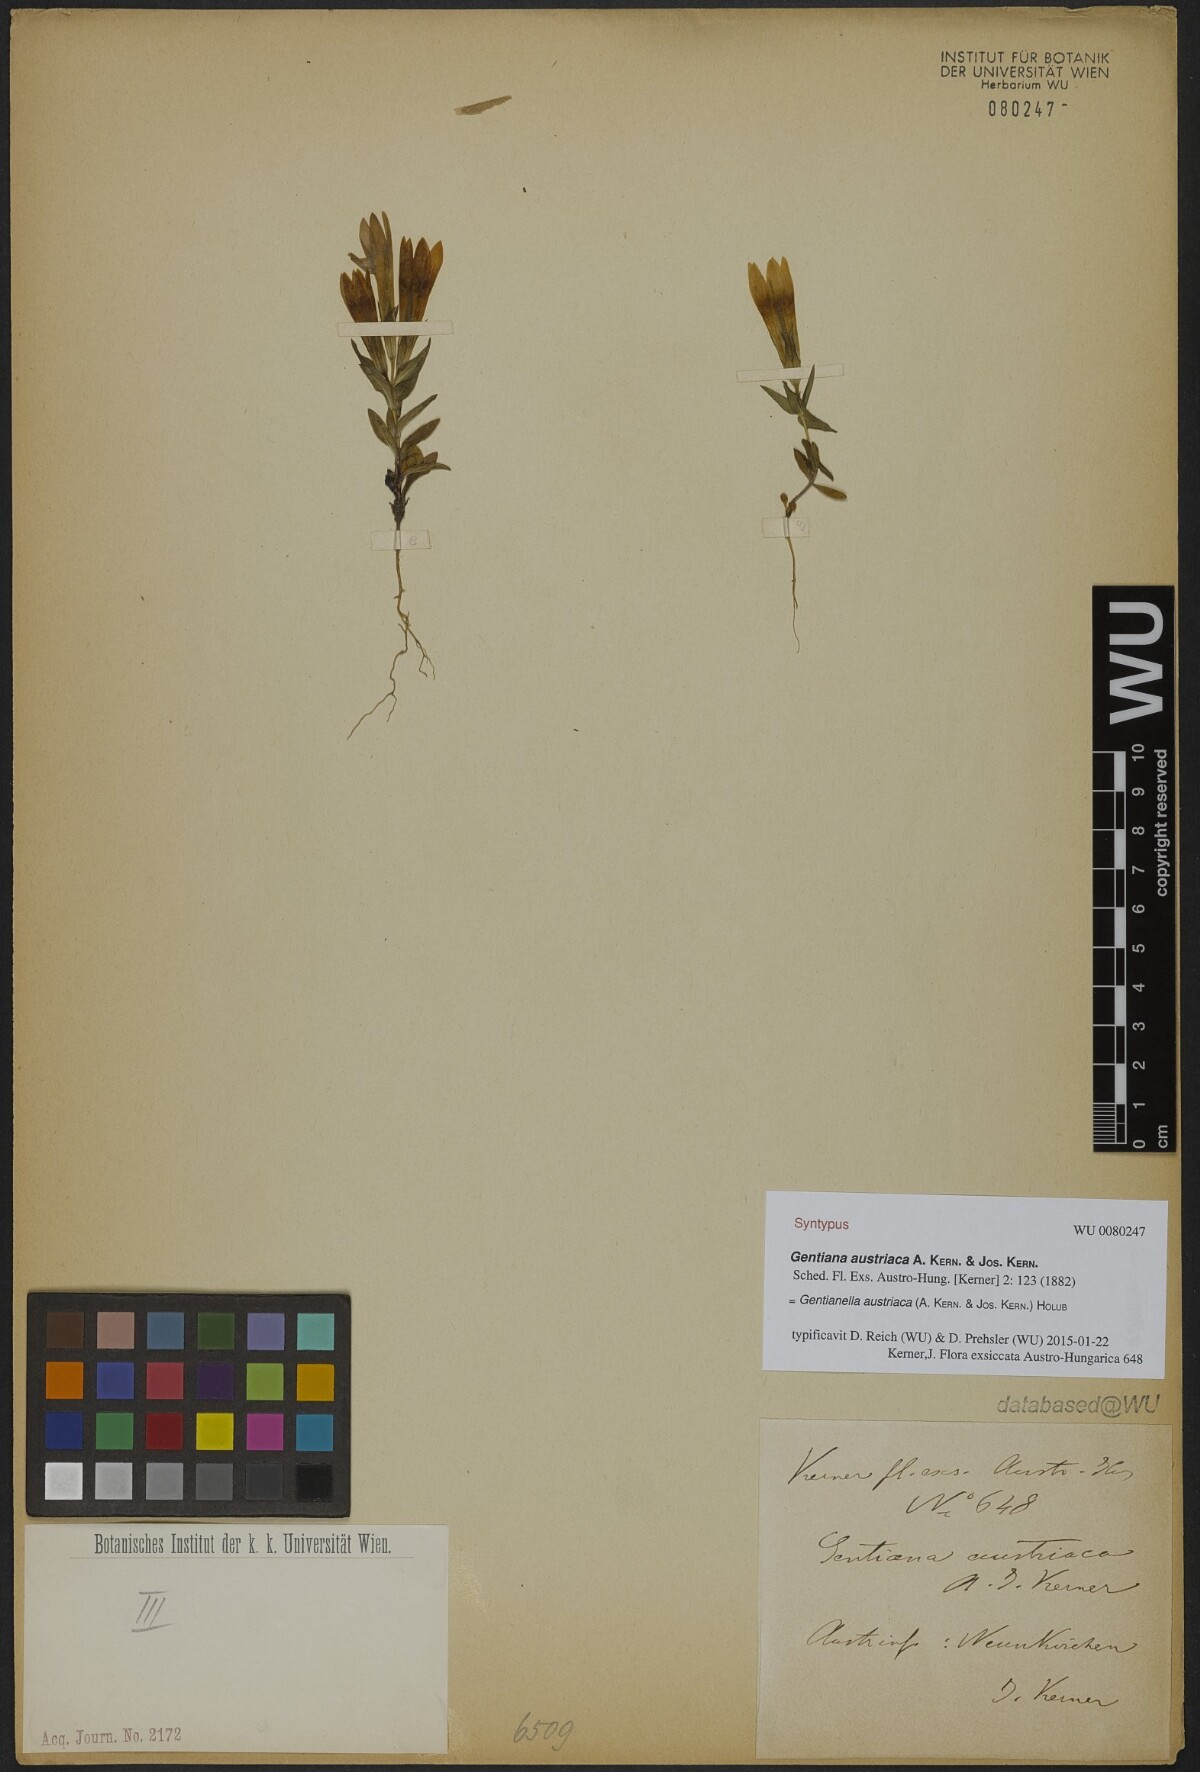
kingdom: Plantae
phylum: Tracheophyta
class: Magnoliopsida
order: Gentianales
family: Gentianaceae
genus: Gentianella
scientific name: Gentianella austriaca
